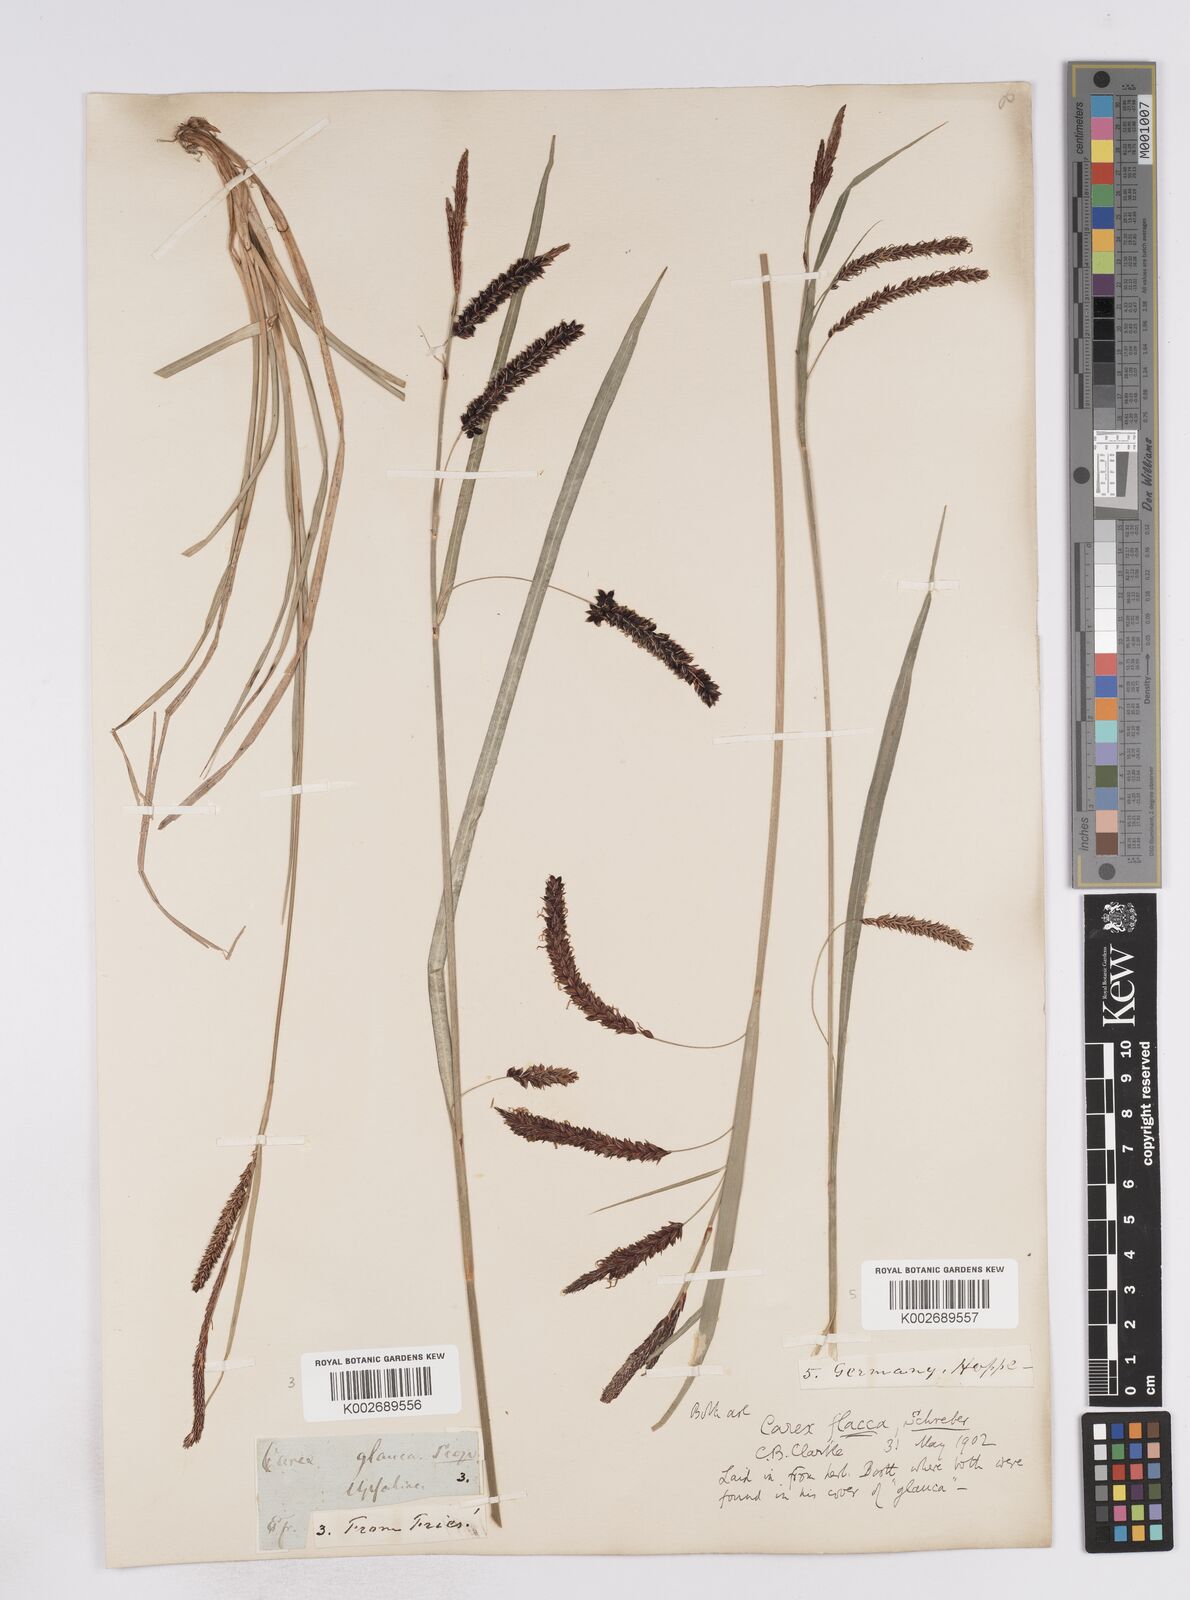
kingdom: Plantae
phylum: Tracheophyta
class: Liliopsida
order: Poales
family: Cyperaceae
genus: Carex
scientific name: Carex flacca
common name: Glaucous sedge
